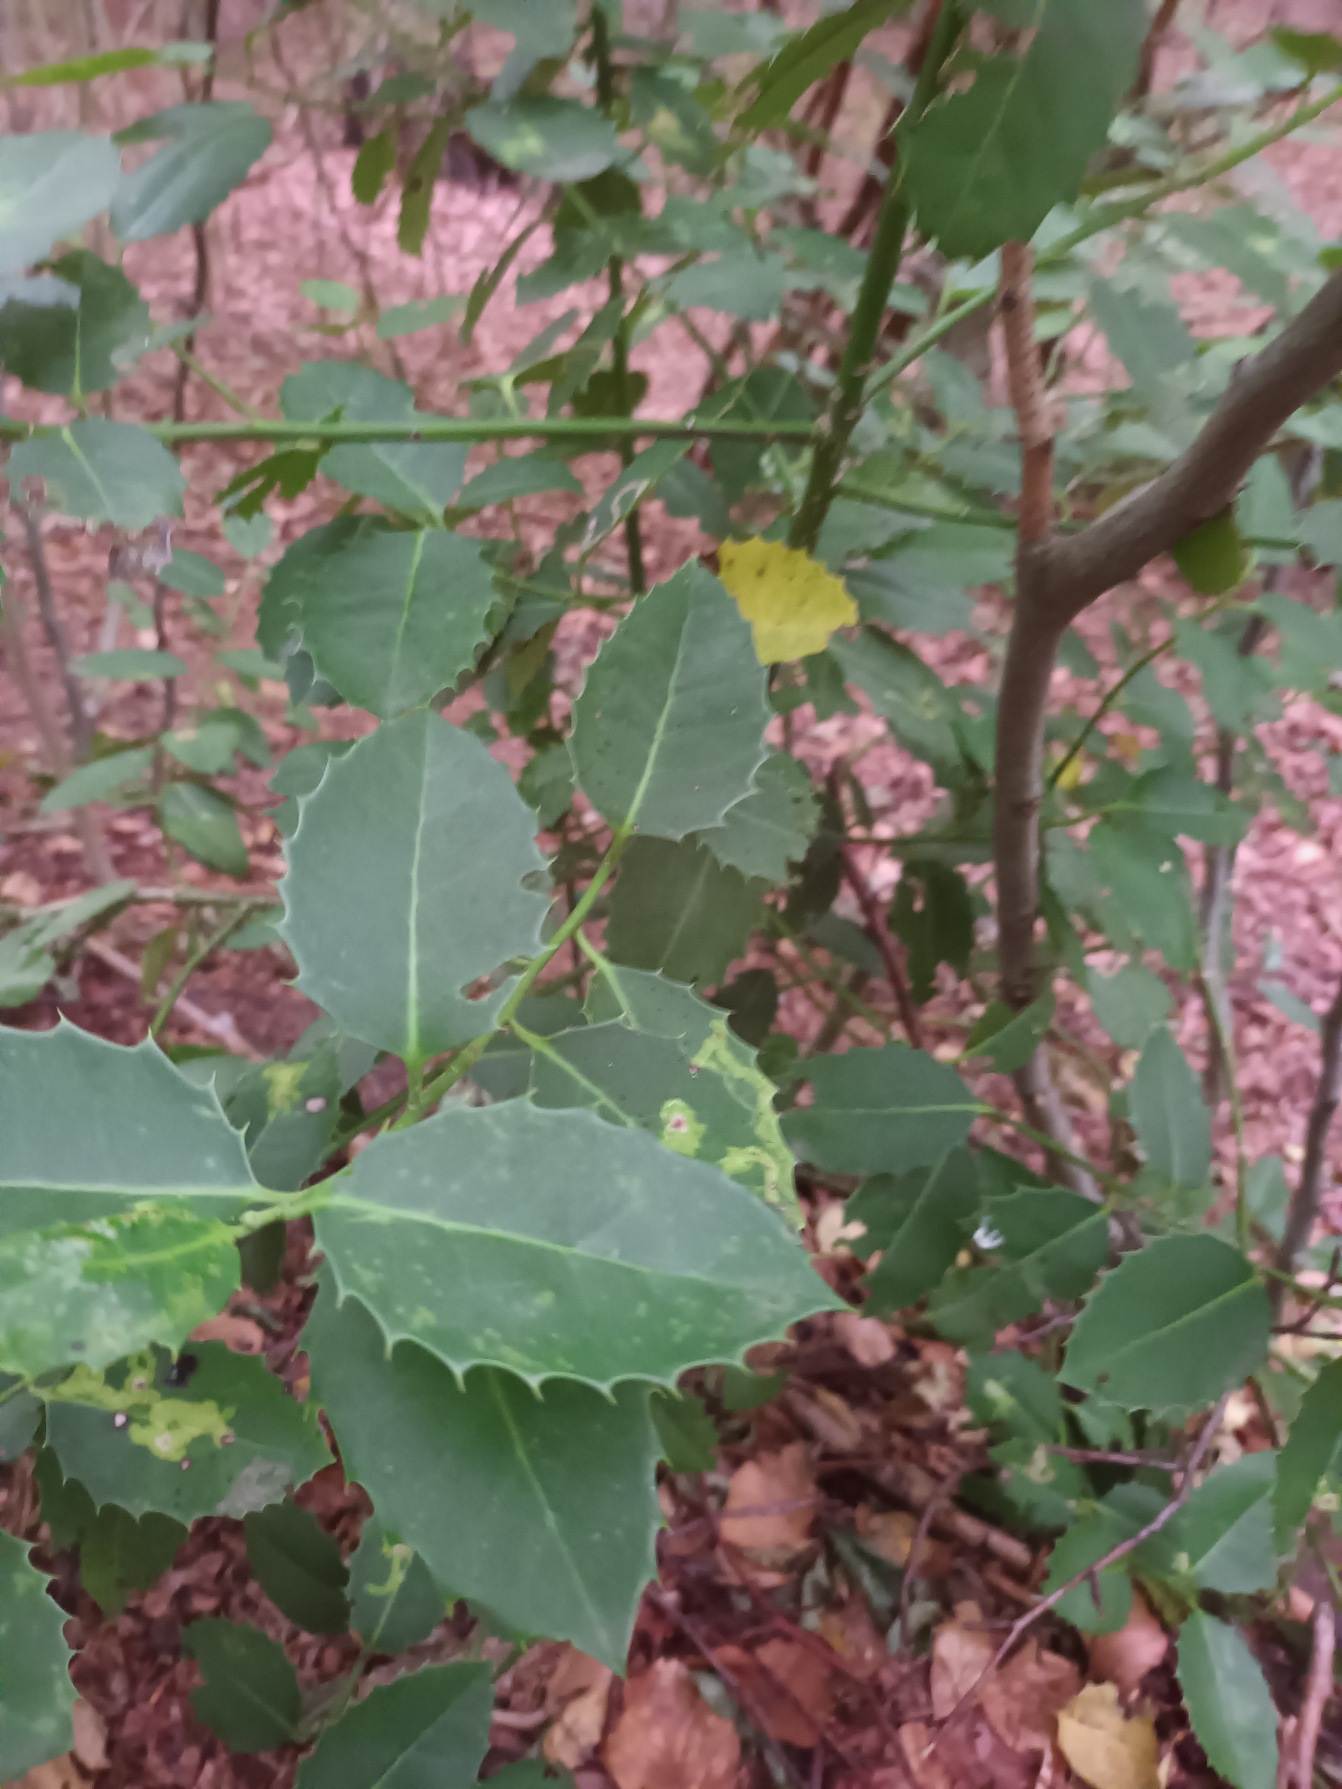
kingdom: Plantae
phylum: Tracheophyta
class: Magnoliopsida
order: Aquifoliales
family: Aquifoliaceae
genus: Ilex
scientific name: Ilex altaclerensis
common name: Storbladet kristtorn
